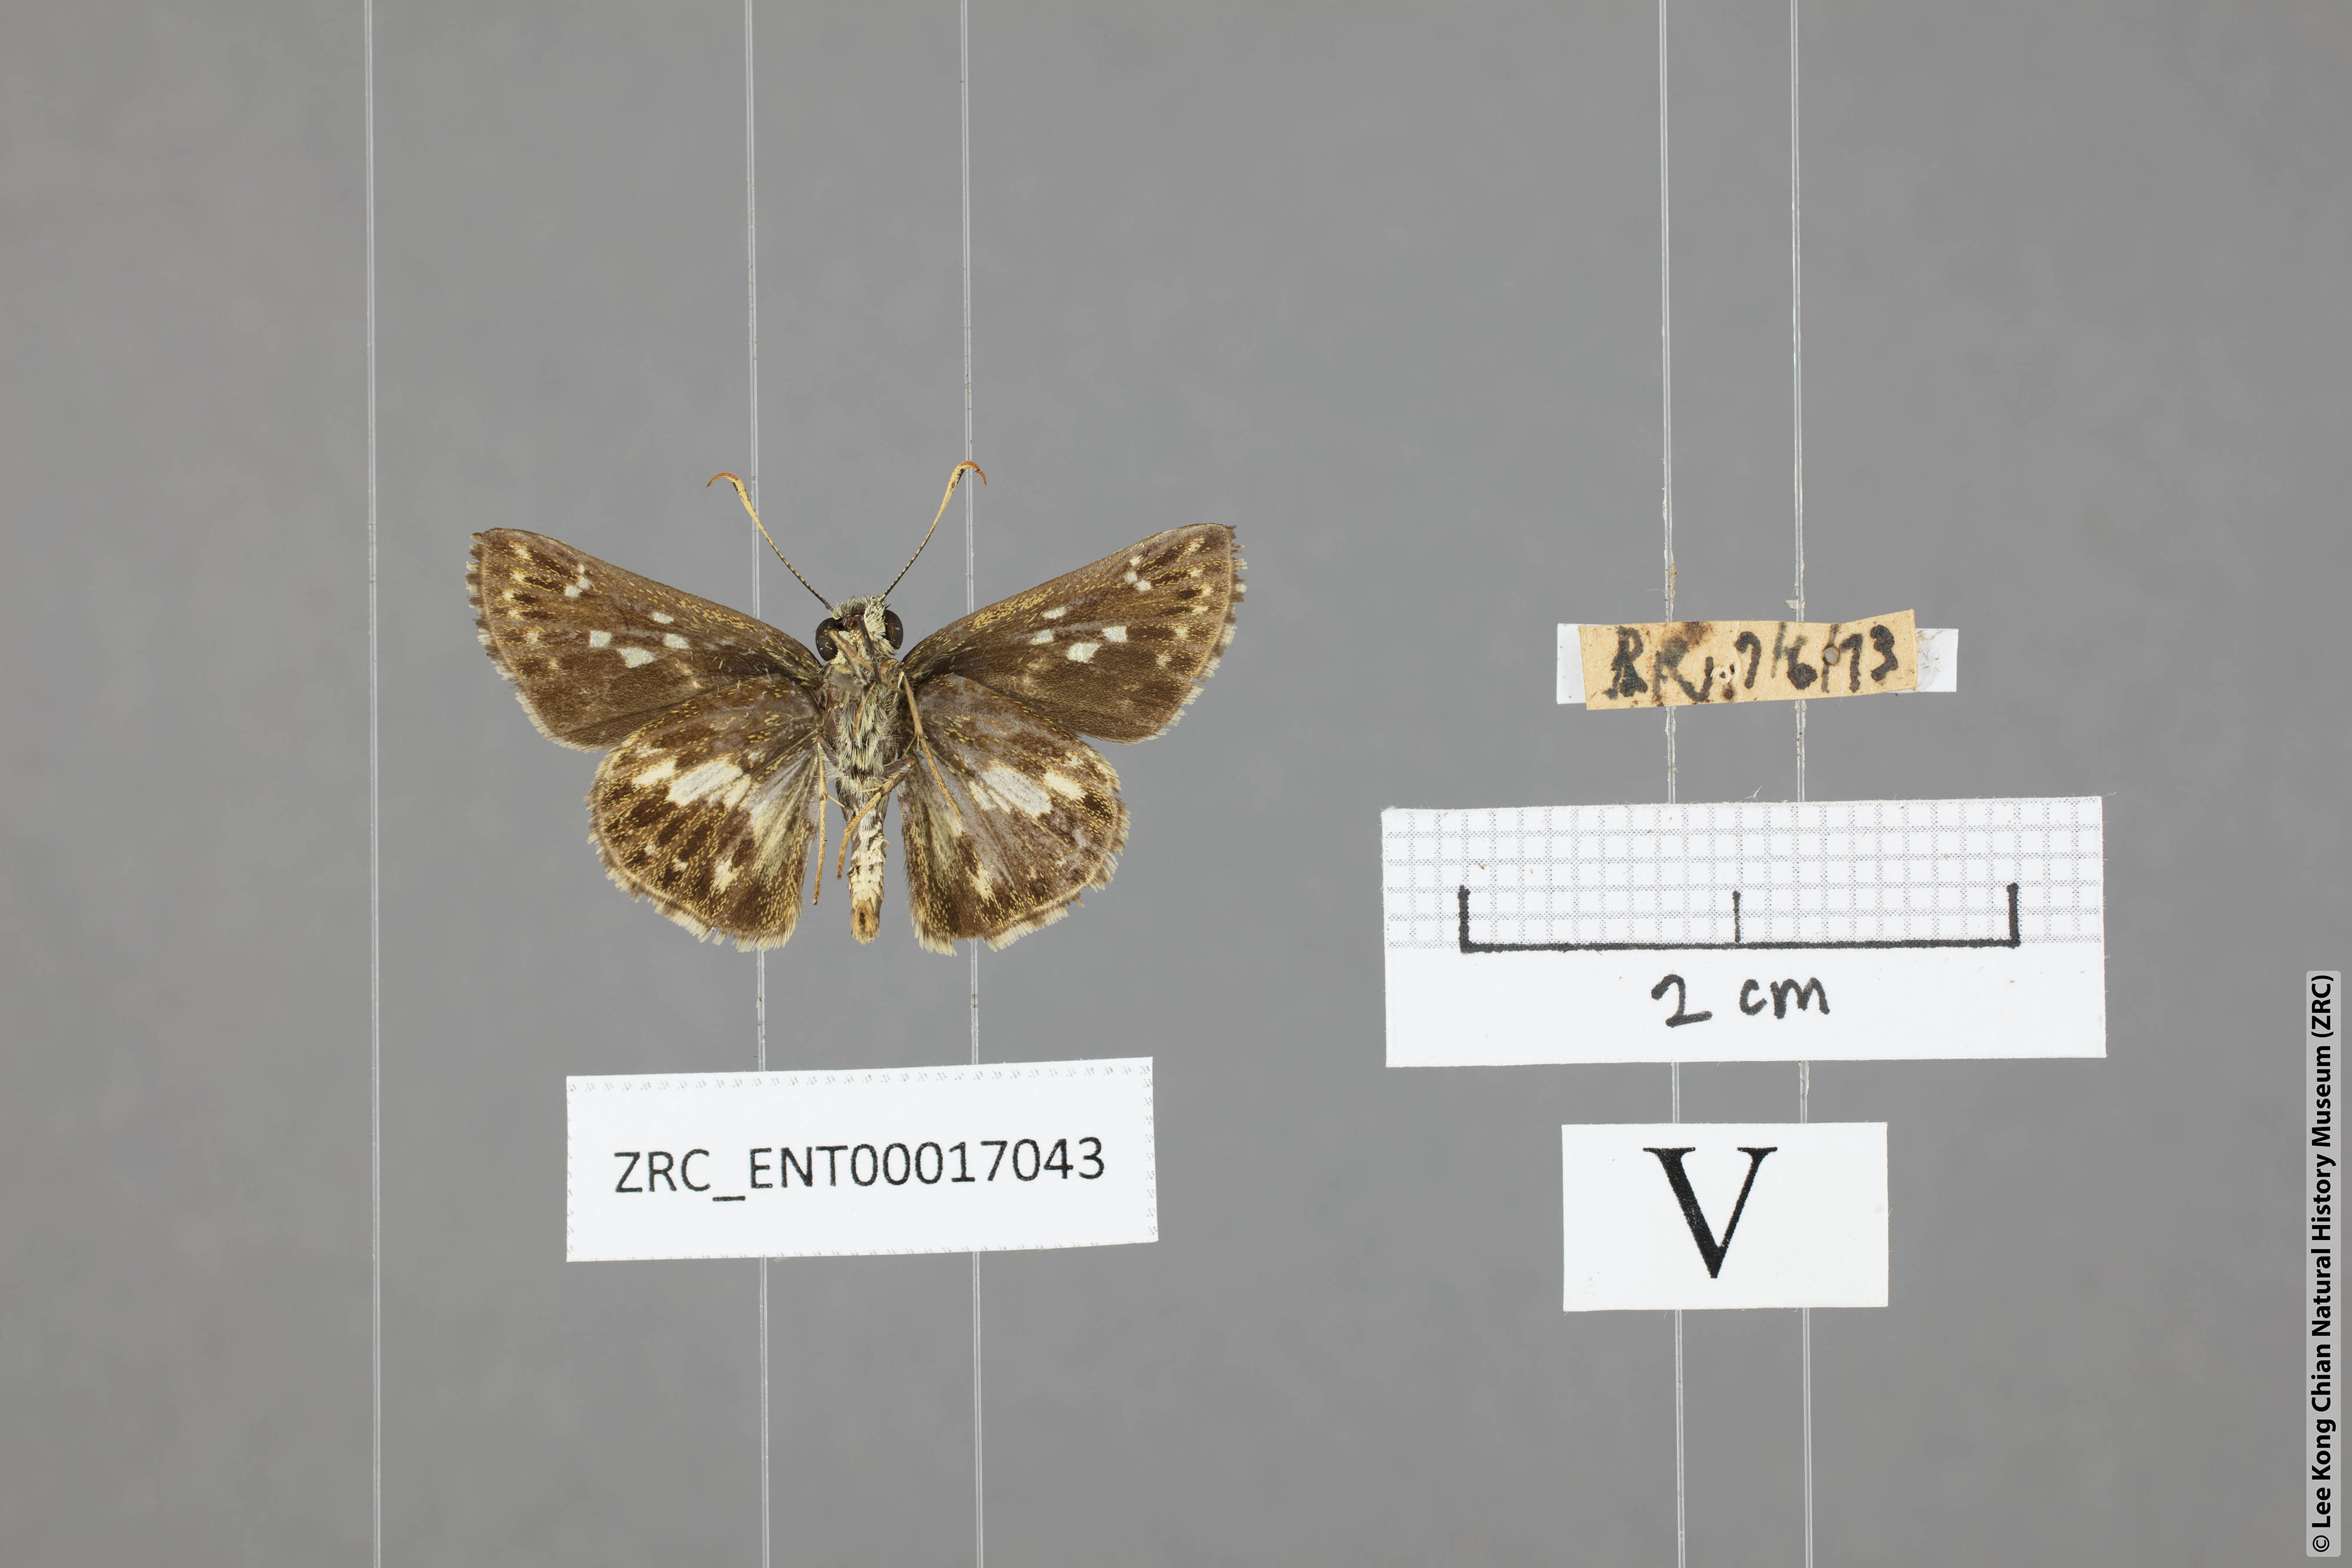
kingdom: Animalia
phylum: Arthropoda
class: Insecta
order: Lepidoptera
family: Hesperiidae
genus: Halpe
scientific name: Halpe porus
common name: Moore's ace
